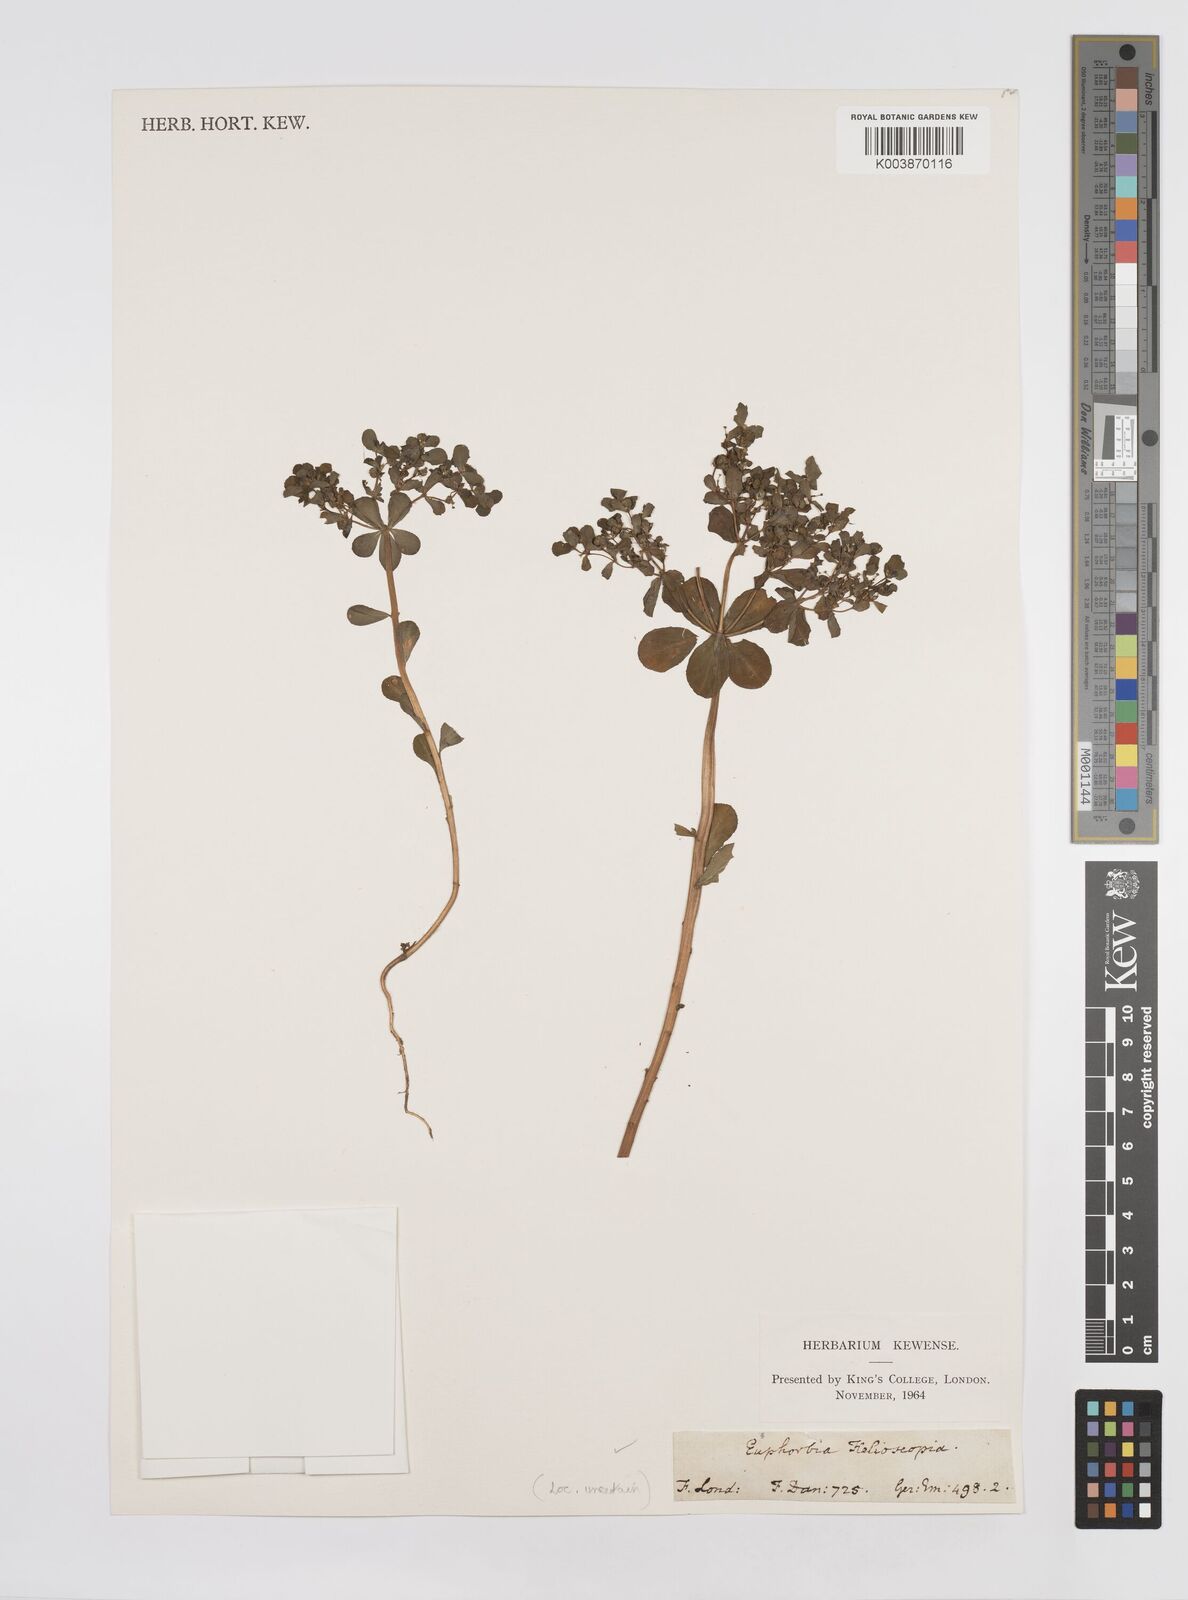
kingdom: Plantae
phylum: Tracheophyta
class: Magnoliopsida
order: Malpighiales
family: Euphorbiaceae
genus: Euphorbia
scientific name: Euphorbia helioscopia
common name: Sun spurge
